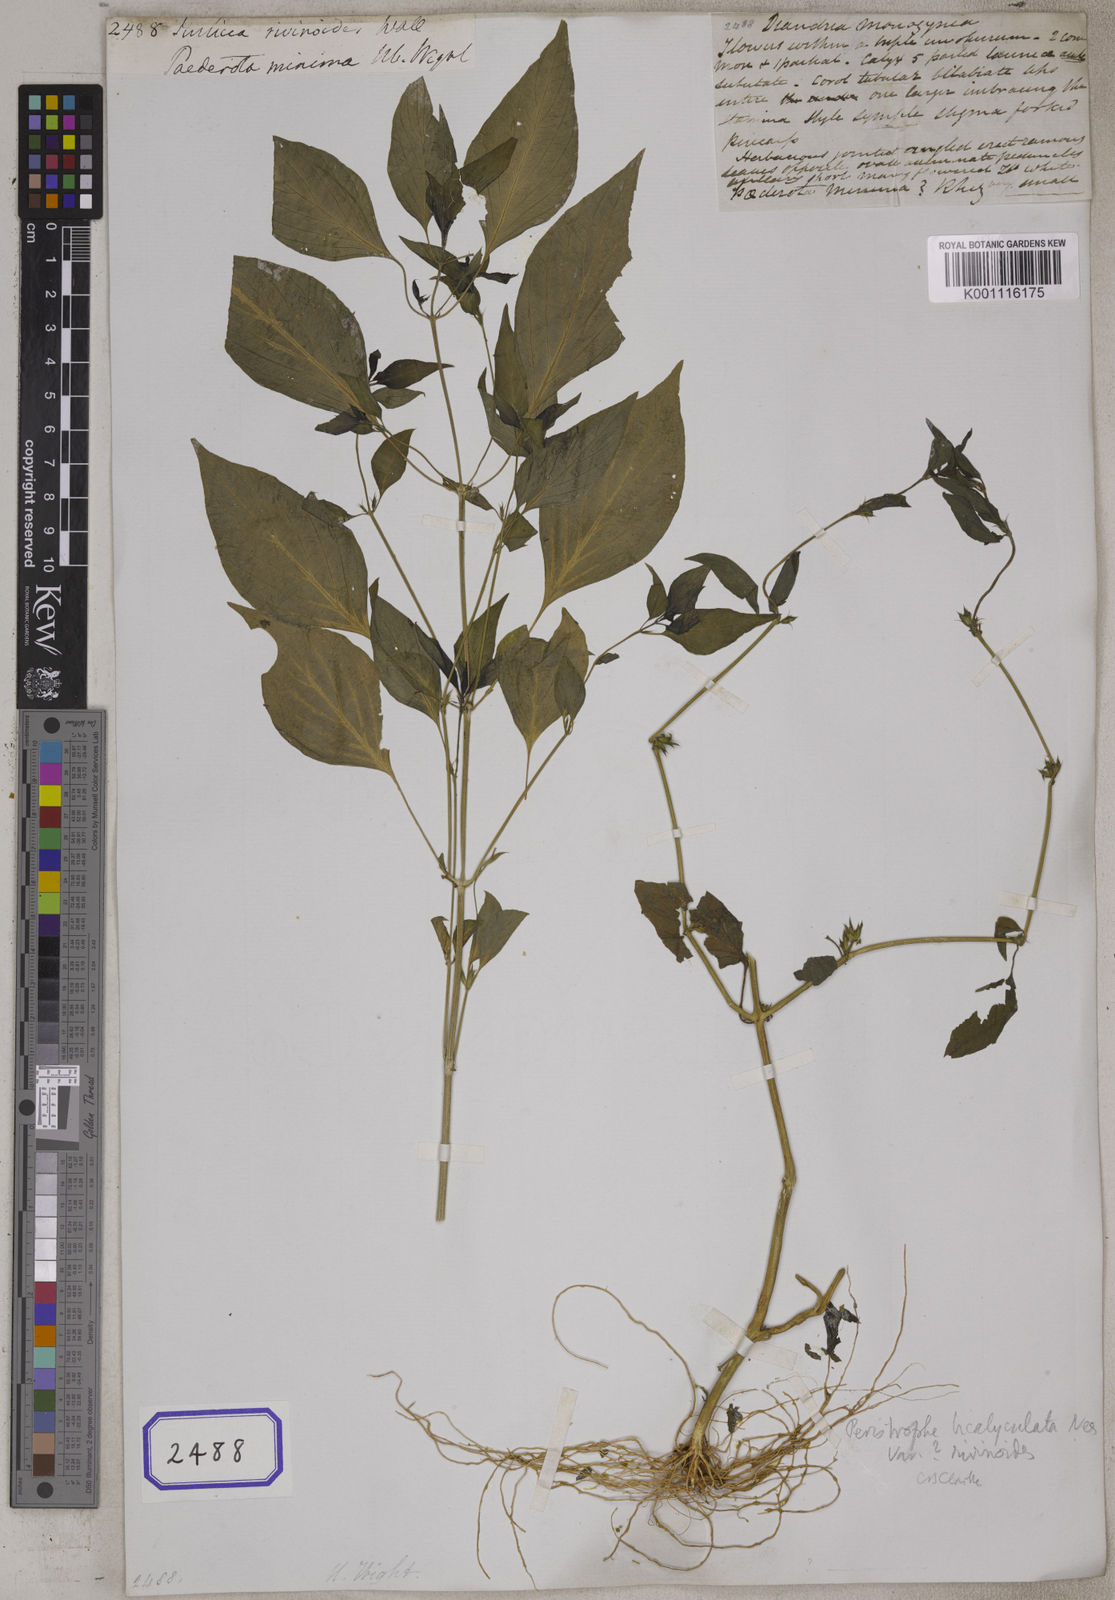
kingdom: Plantae
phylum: Tracheophyta
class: Magnoliopsida
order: Lamiales
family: Acanthaceae
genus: Justicia
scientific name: Justicia
